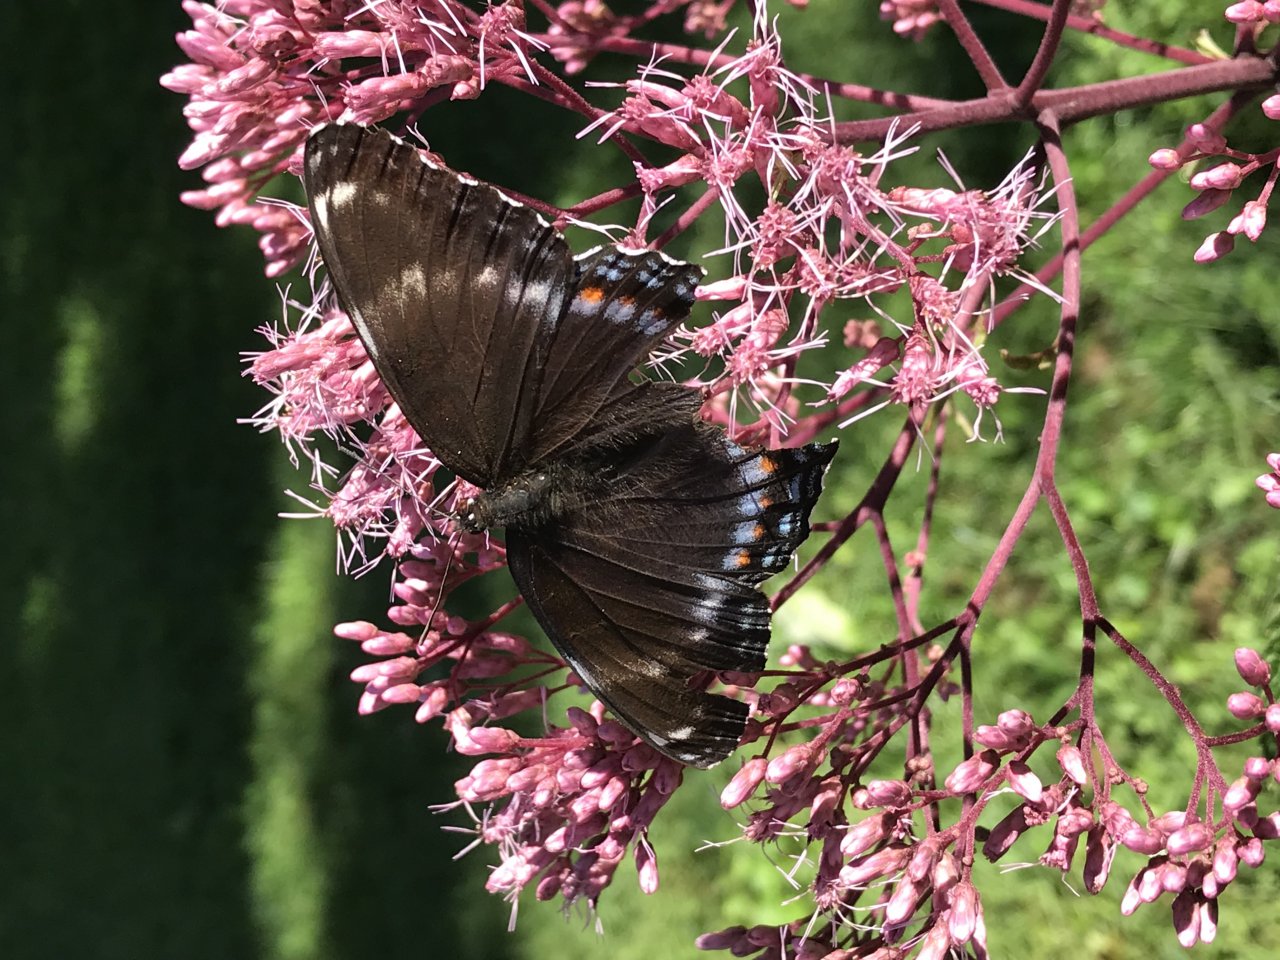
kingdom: Animalia
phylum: Arthropoda
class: Insecta
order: Lepidoptera
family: Nymphalidae
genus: Limenitis
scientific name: Limenitis
